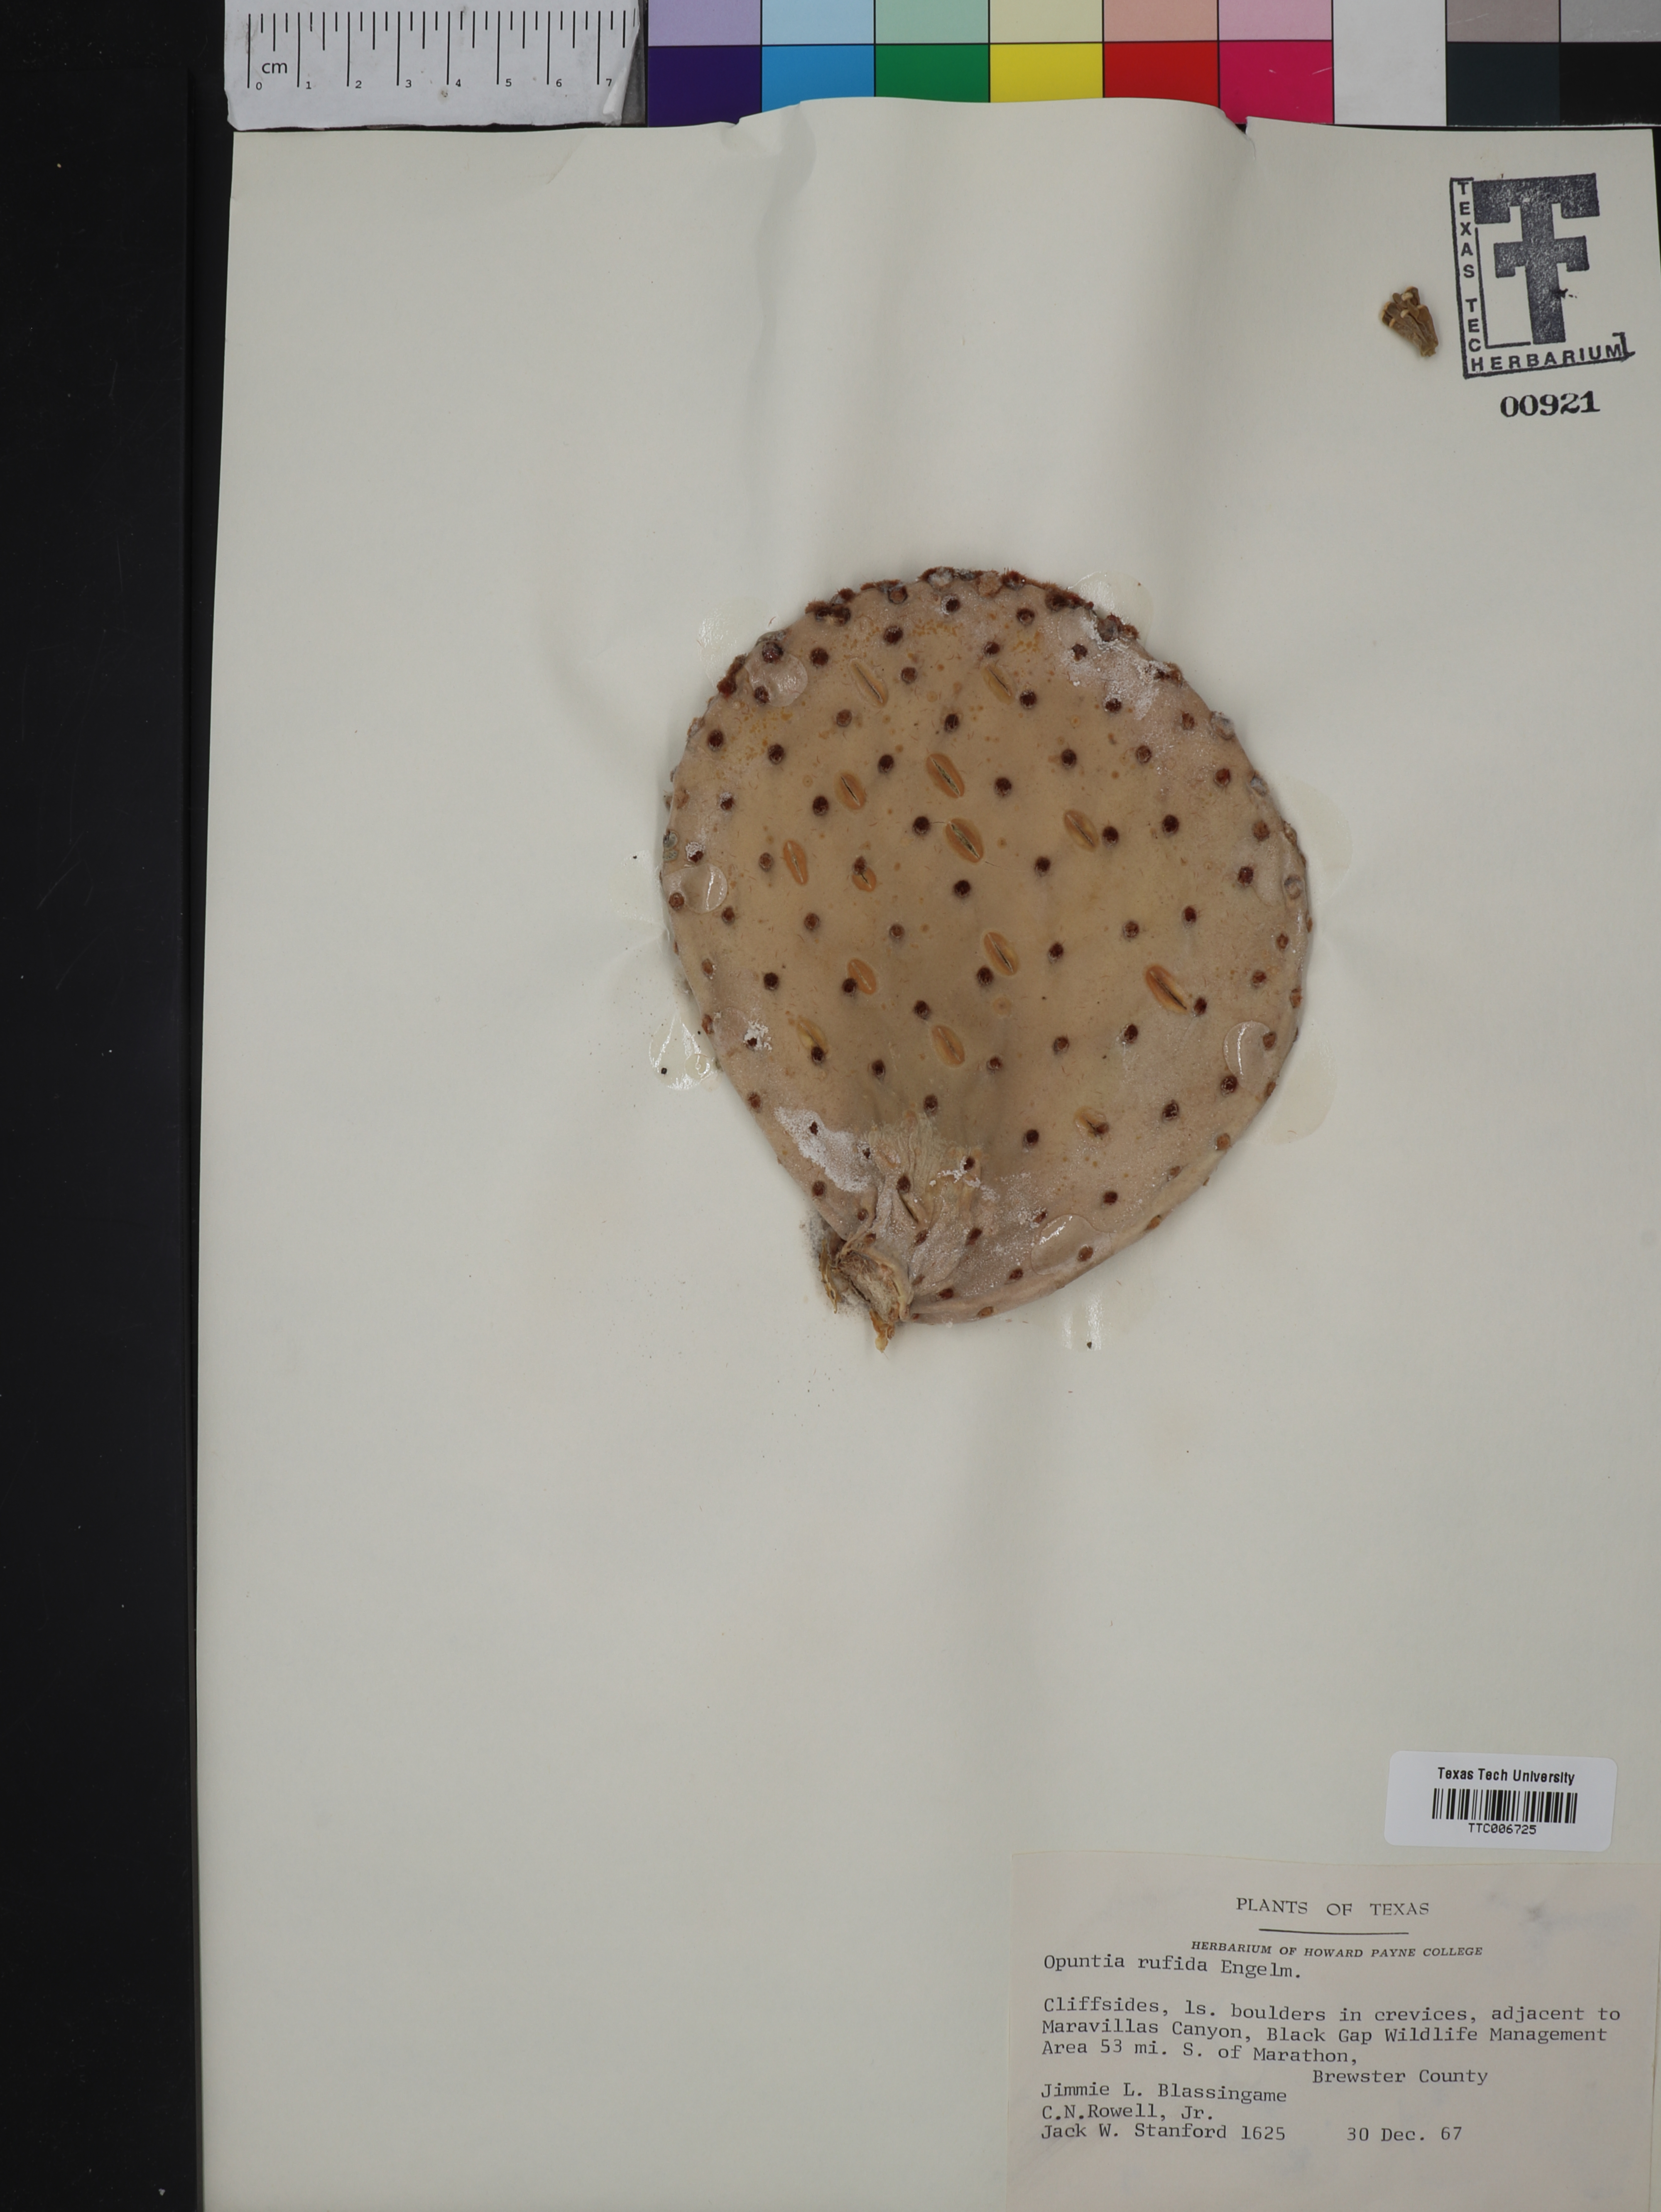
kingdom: Plantae
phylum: Tracheophyta
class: Magnoliopsida
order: Caryophyllales
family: Cactaceae
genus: Opuntia
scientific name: Opuntia rufida
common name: Blind pricklypear
